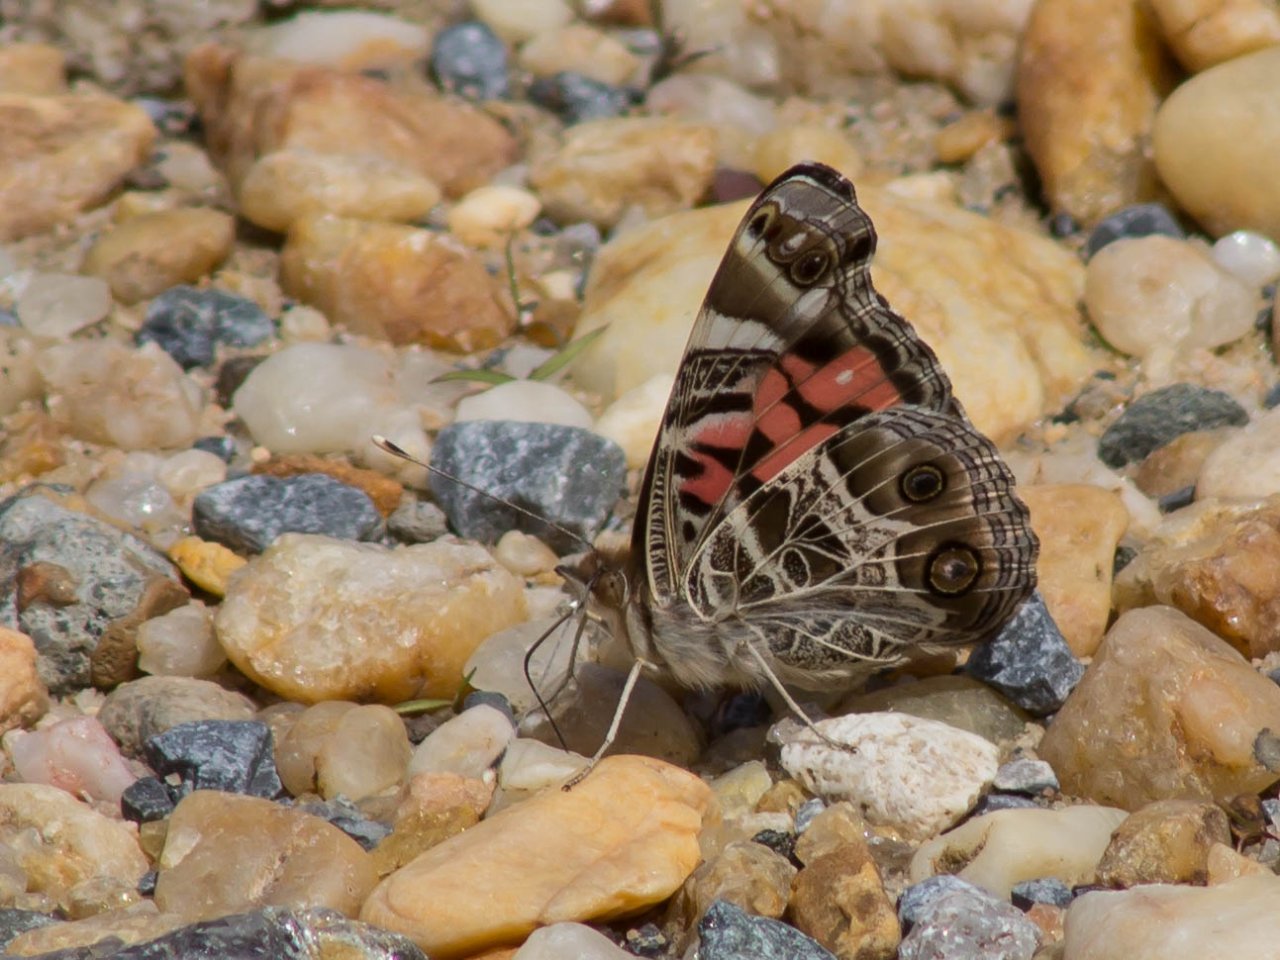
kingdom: Animalia
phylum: Arthropoda
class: Insecta
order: Lepidoptera
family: Nymphalidae
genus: Vanessa
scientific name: Vanessa virginiensis
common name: American Lady
